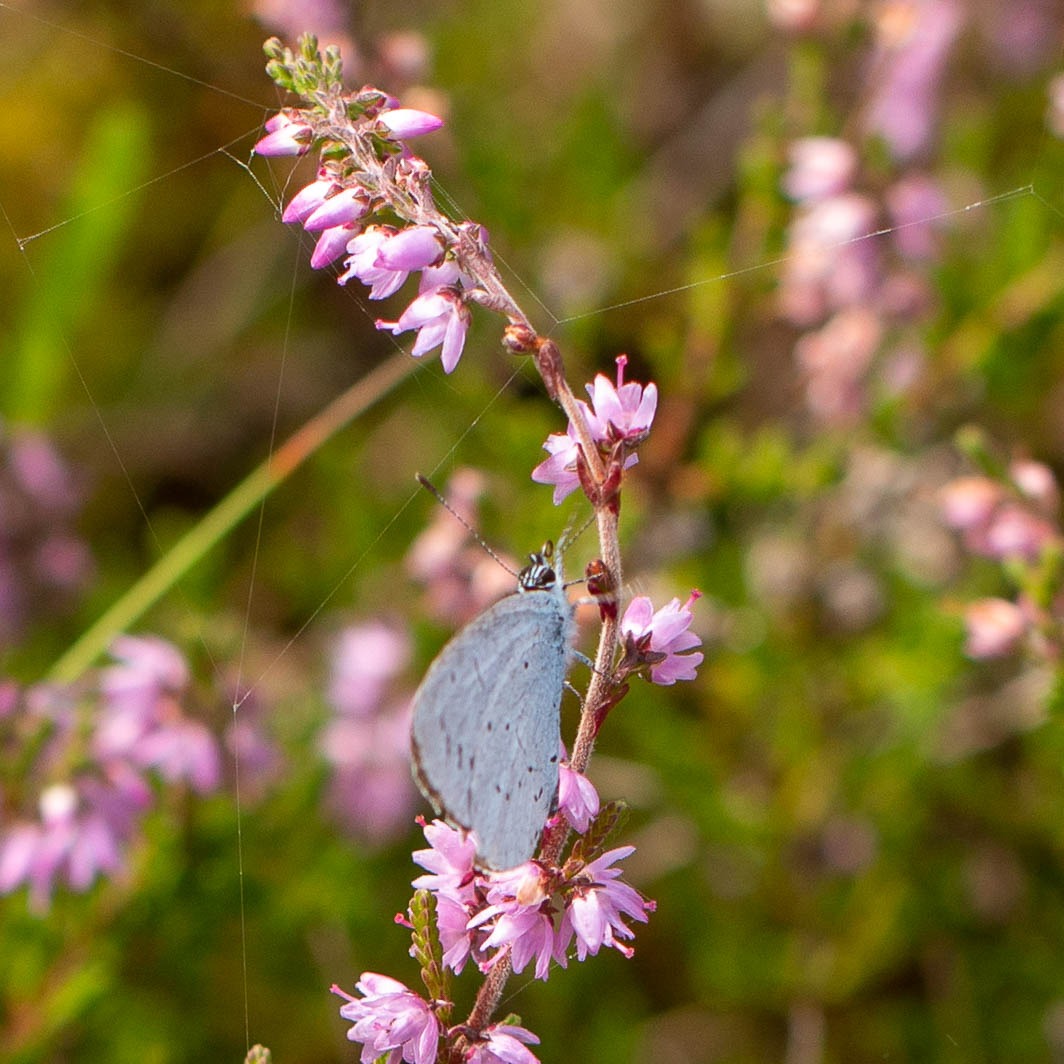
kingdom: Animalia
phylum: Arthropoda
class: Insecta
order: Lepidoptera
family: Lycaenidae
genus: Celastrina
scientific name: Celastrina argiolus
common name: Skovblåfugl
